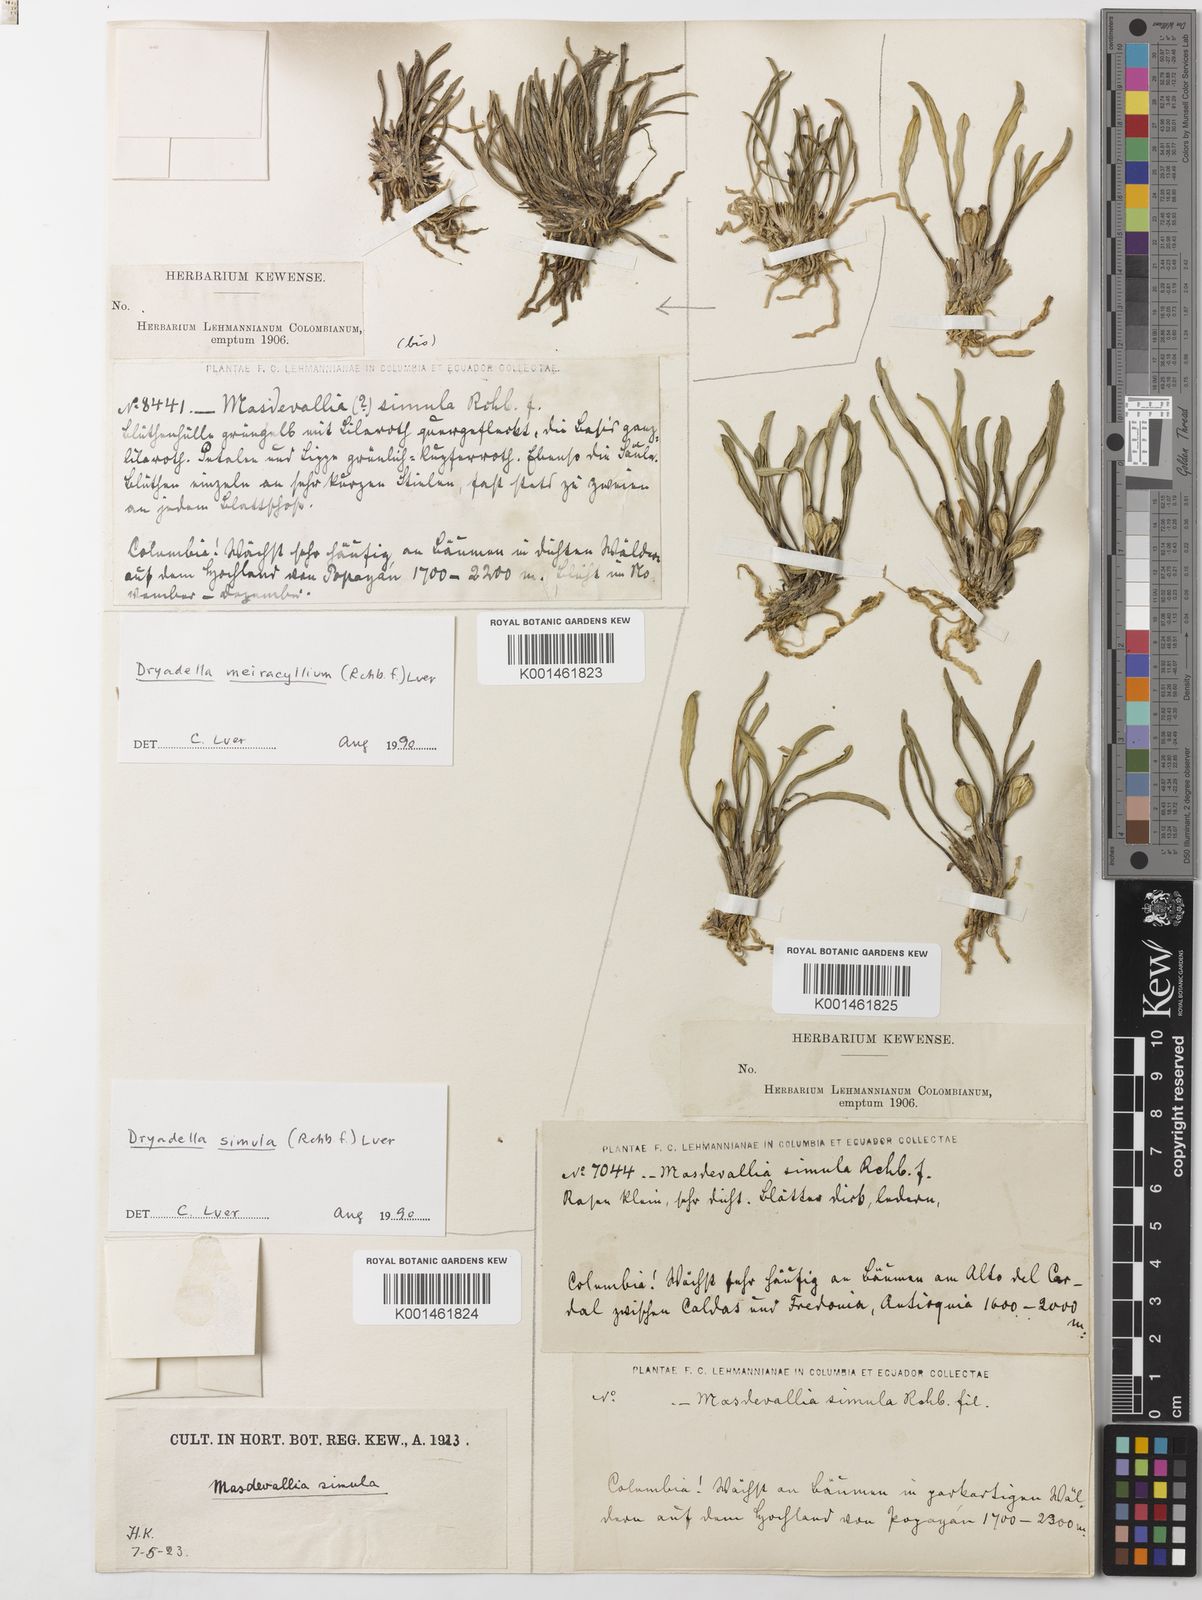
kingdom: Plantae
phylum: Tracheophyta
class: Liliopsida
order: Asparagales
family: Orchidaceae
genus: Dryadella
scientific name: Dryadella meiracyllium
